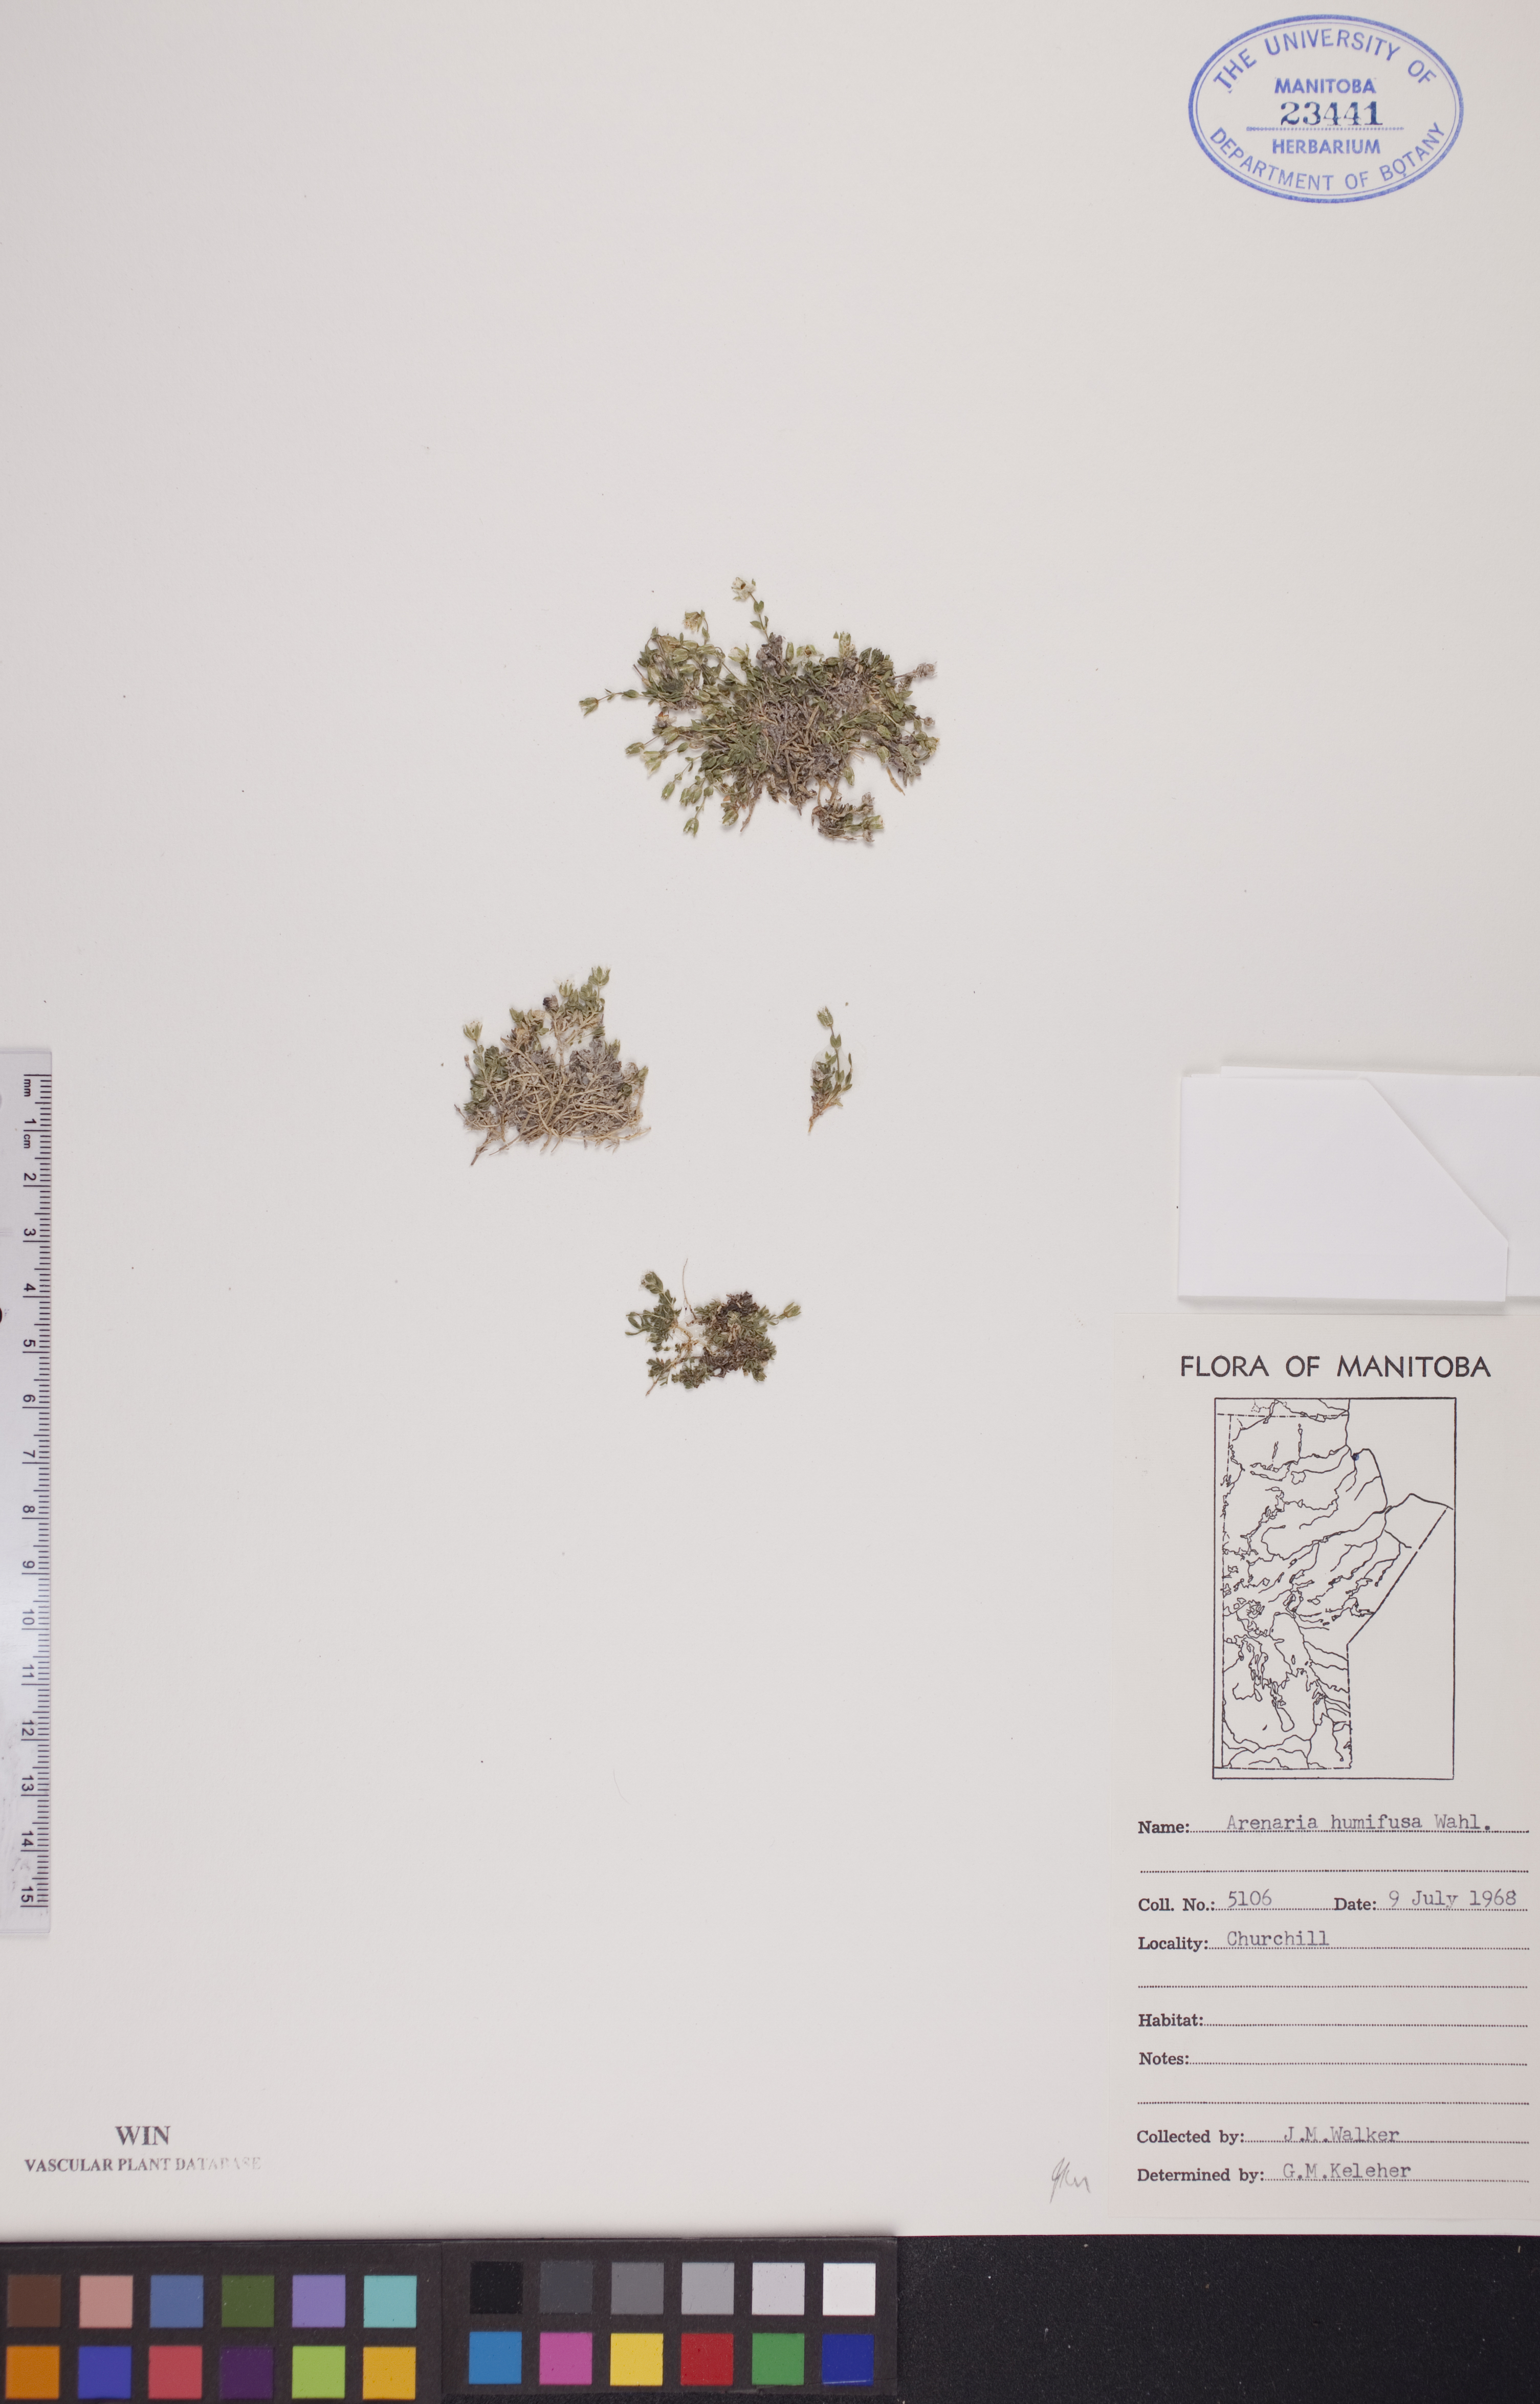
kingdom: Plantae
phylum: Tracheophyta
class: Magnoliopsida
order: Caryophyllales
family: Caryophyllaceae
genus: Arenaria
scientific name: Arenaria humifusa
